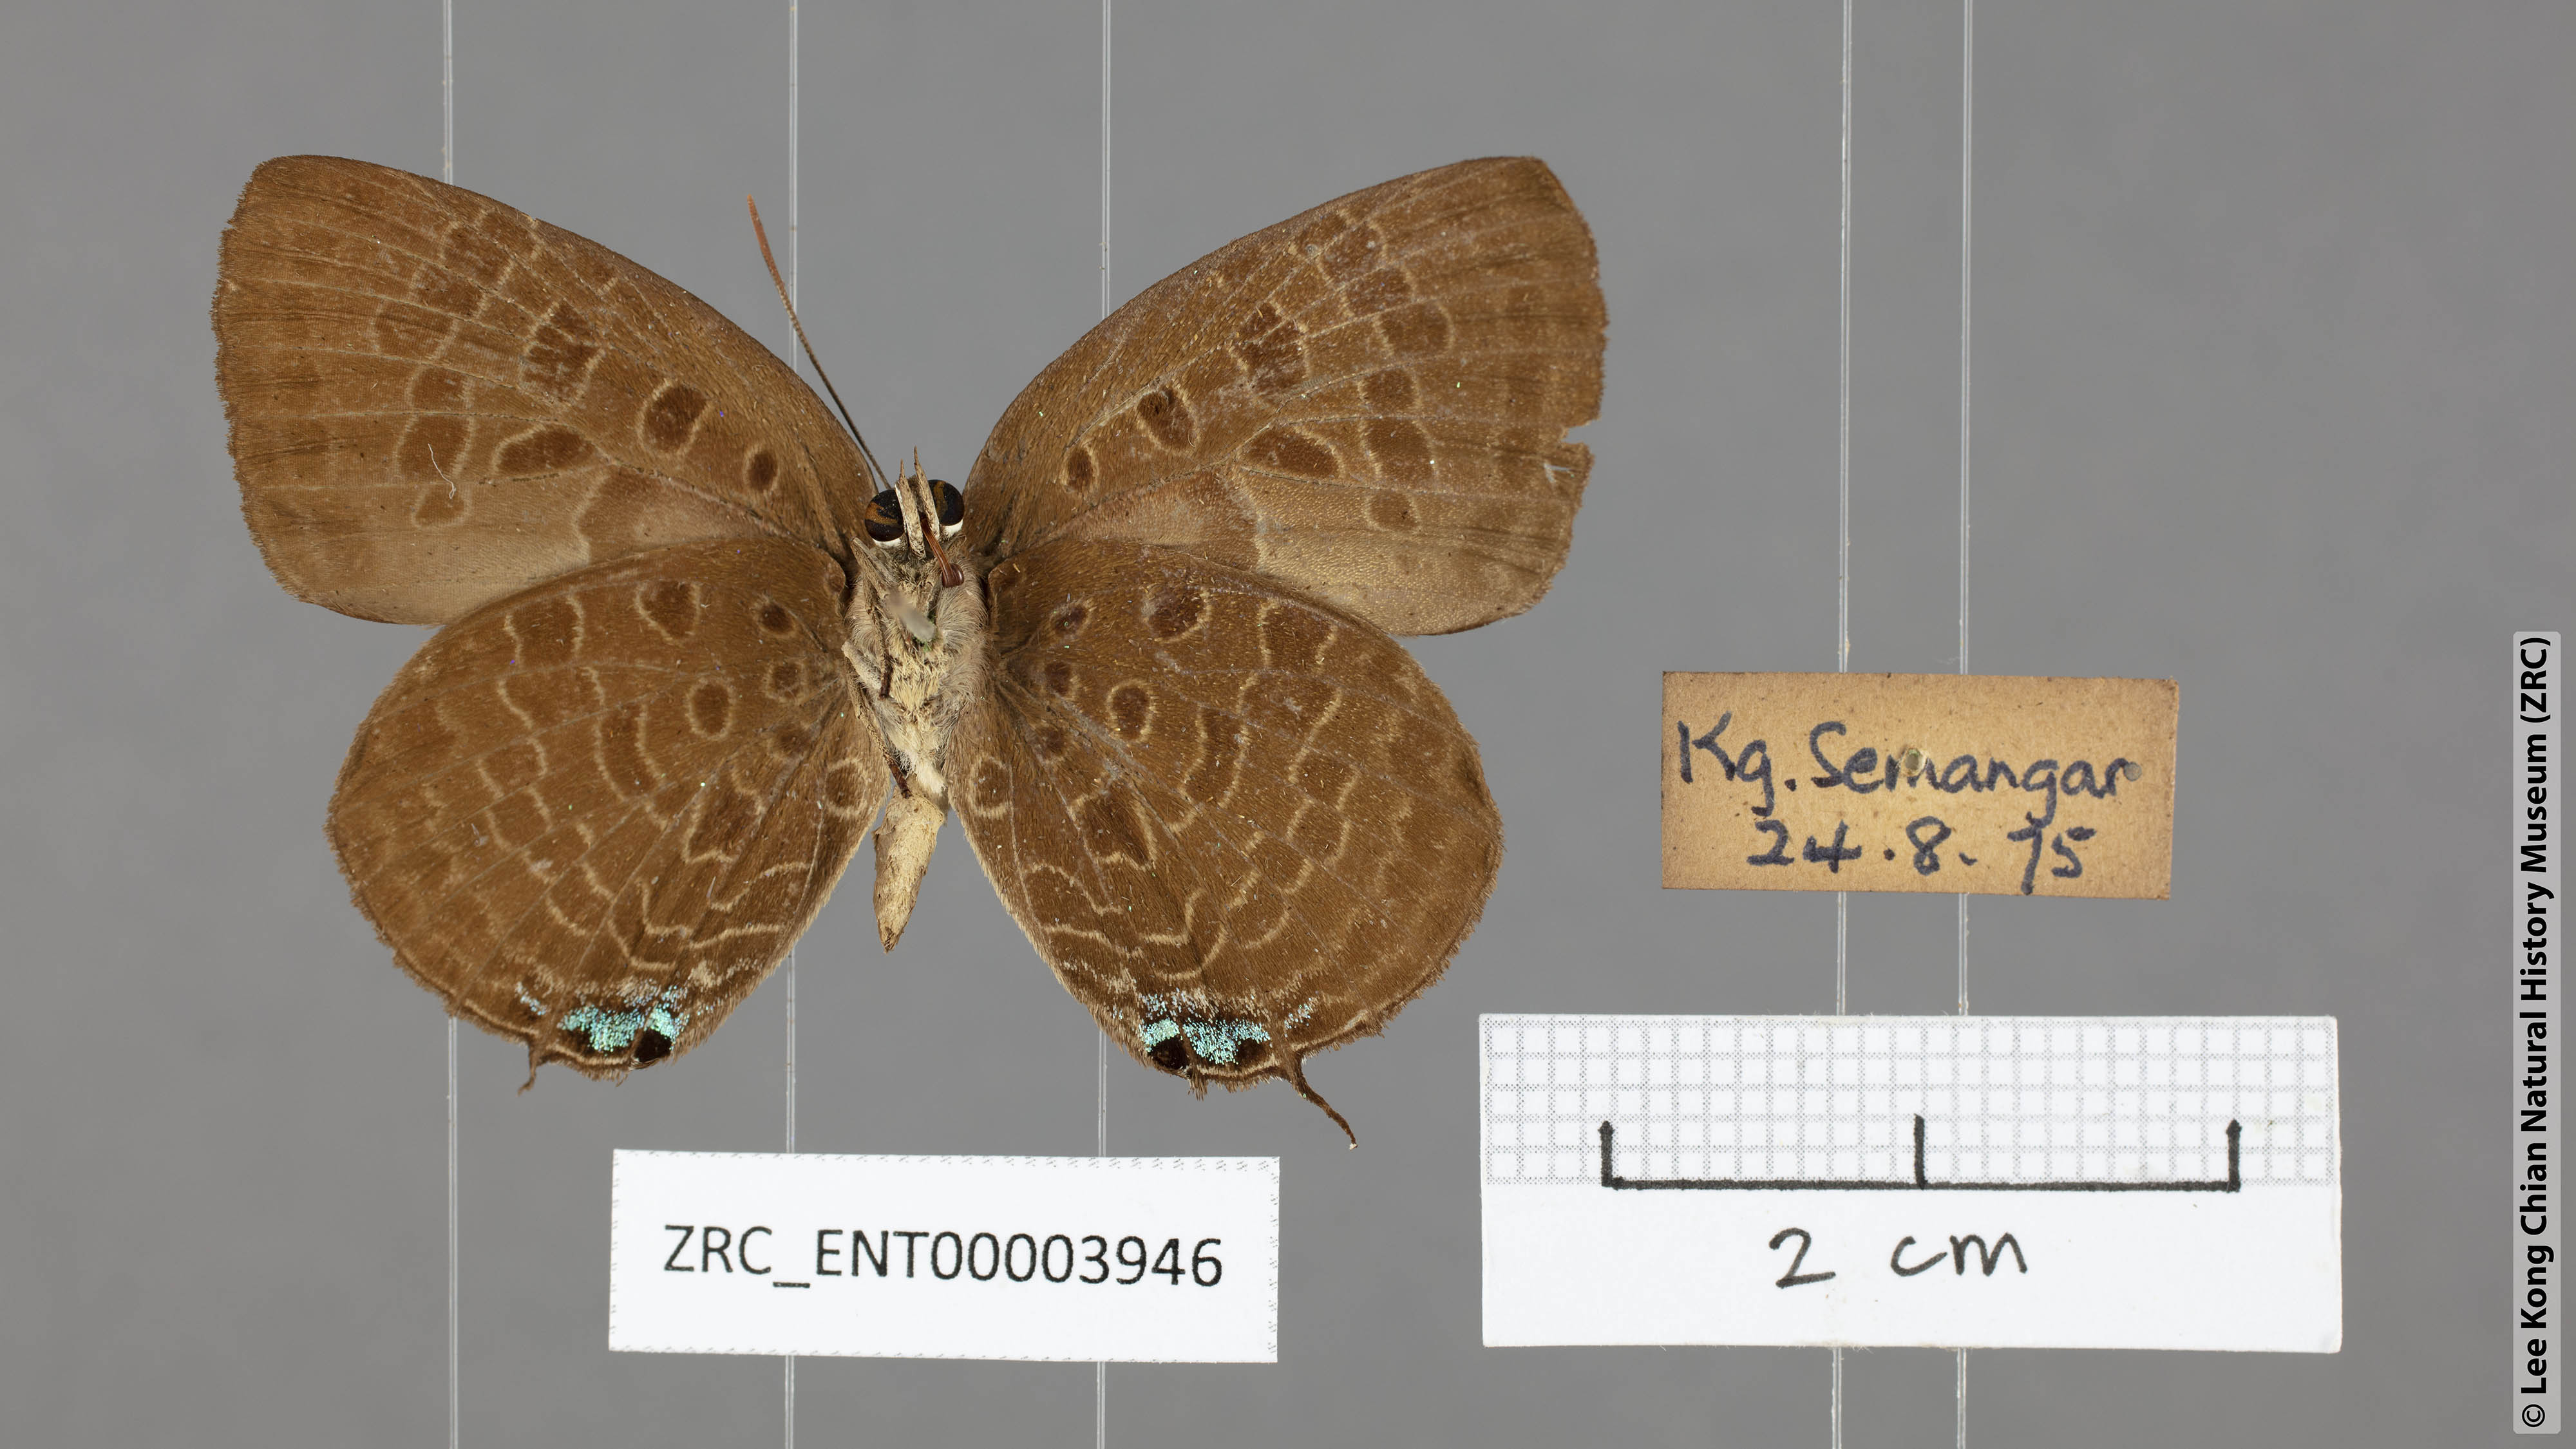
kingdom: Animalia
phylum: Arthropoda
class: Insecta
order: Lepidoptera
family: Lycaenidae
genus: Arhopala
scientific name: Arhopala horsfieldi
